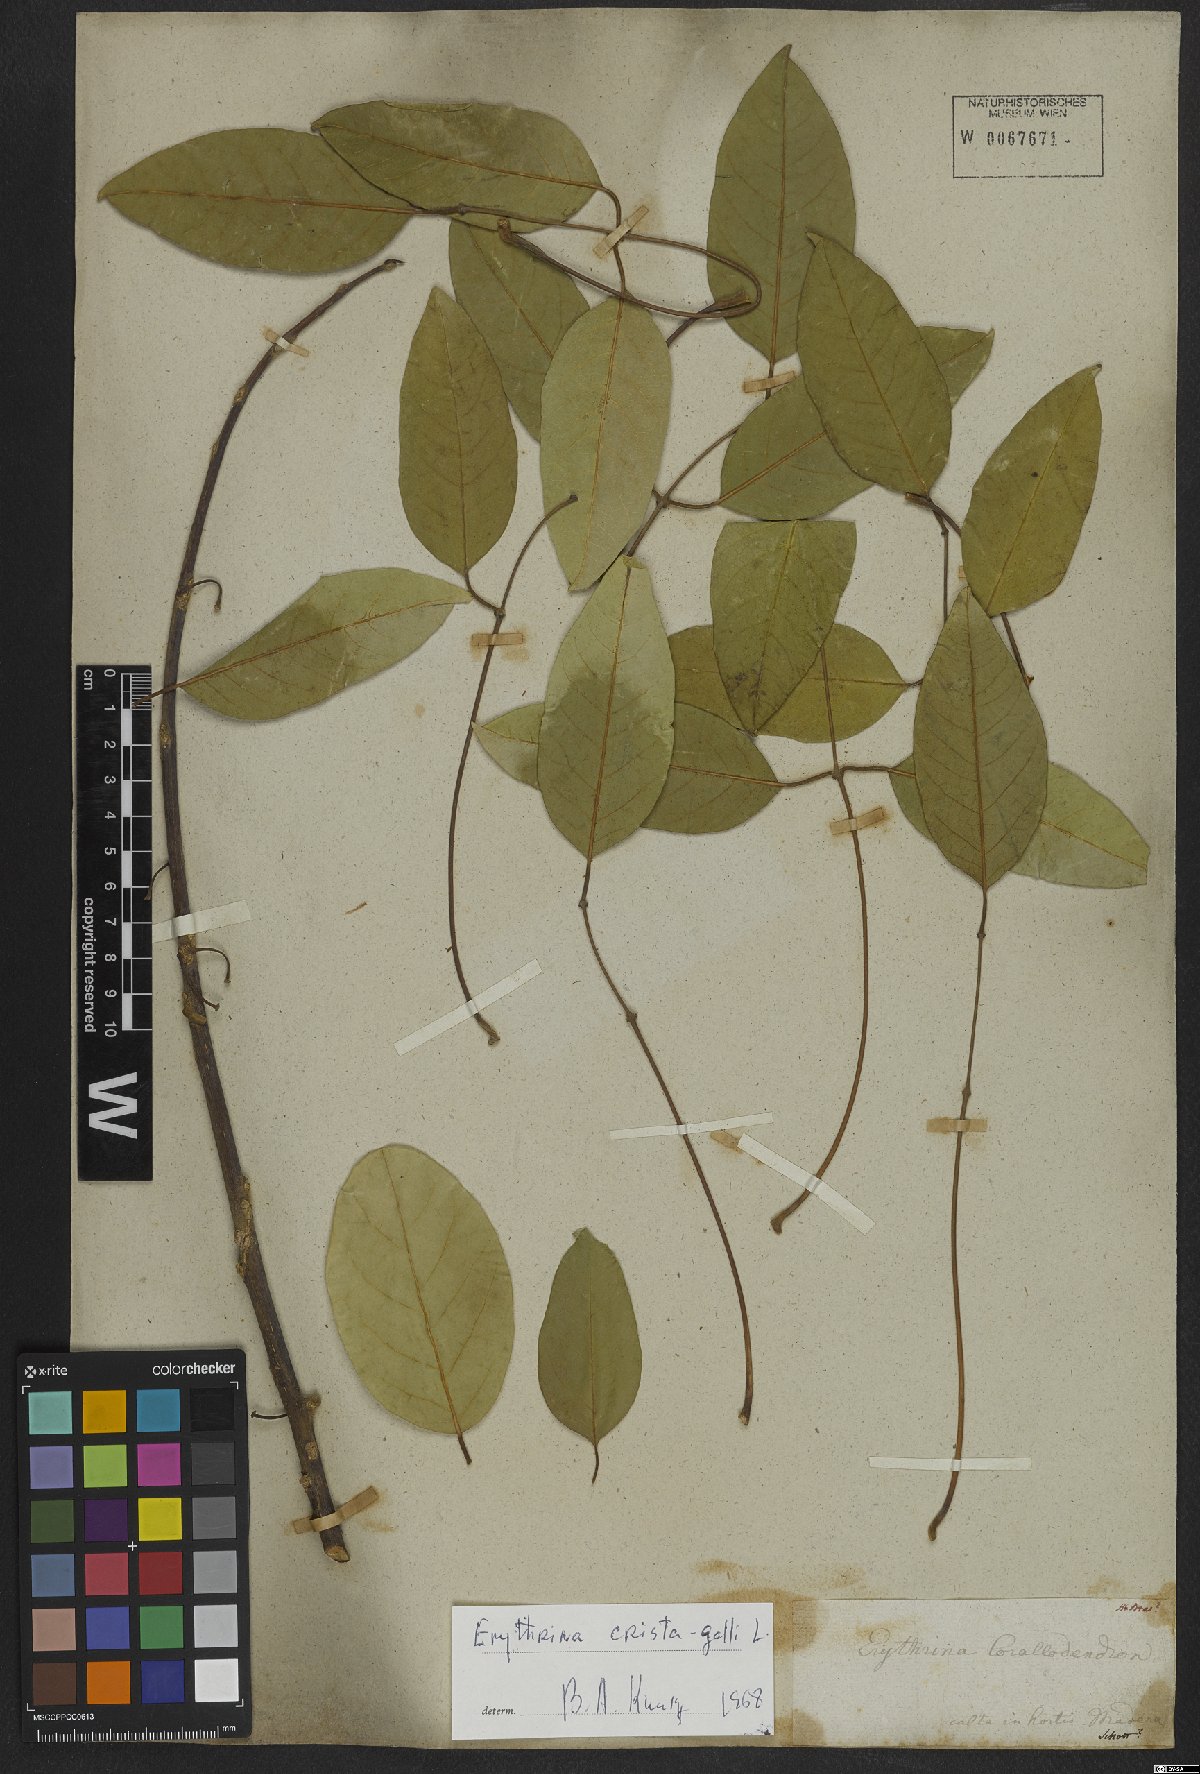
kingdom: Plantae
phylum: Tracheophyta
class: Magnoliopsida
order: Fabales
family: Fabaceae
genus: Erythrina
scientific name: Erythrina crista-galli
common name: Cockspur coral tree
